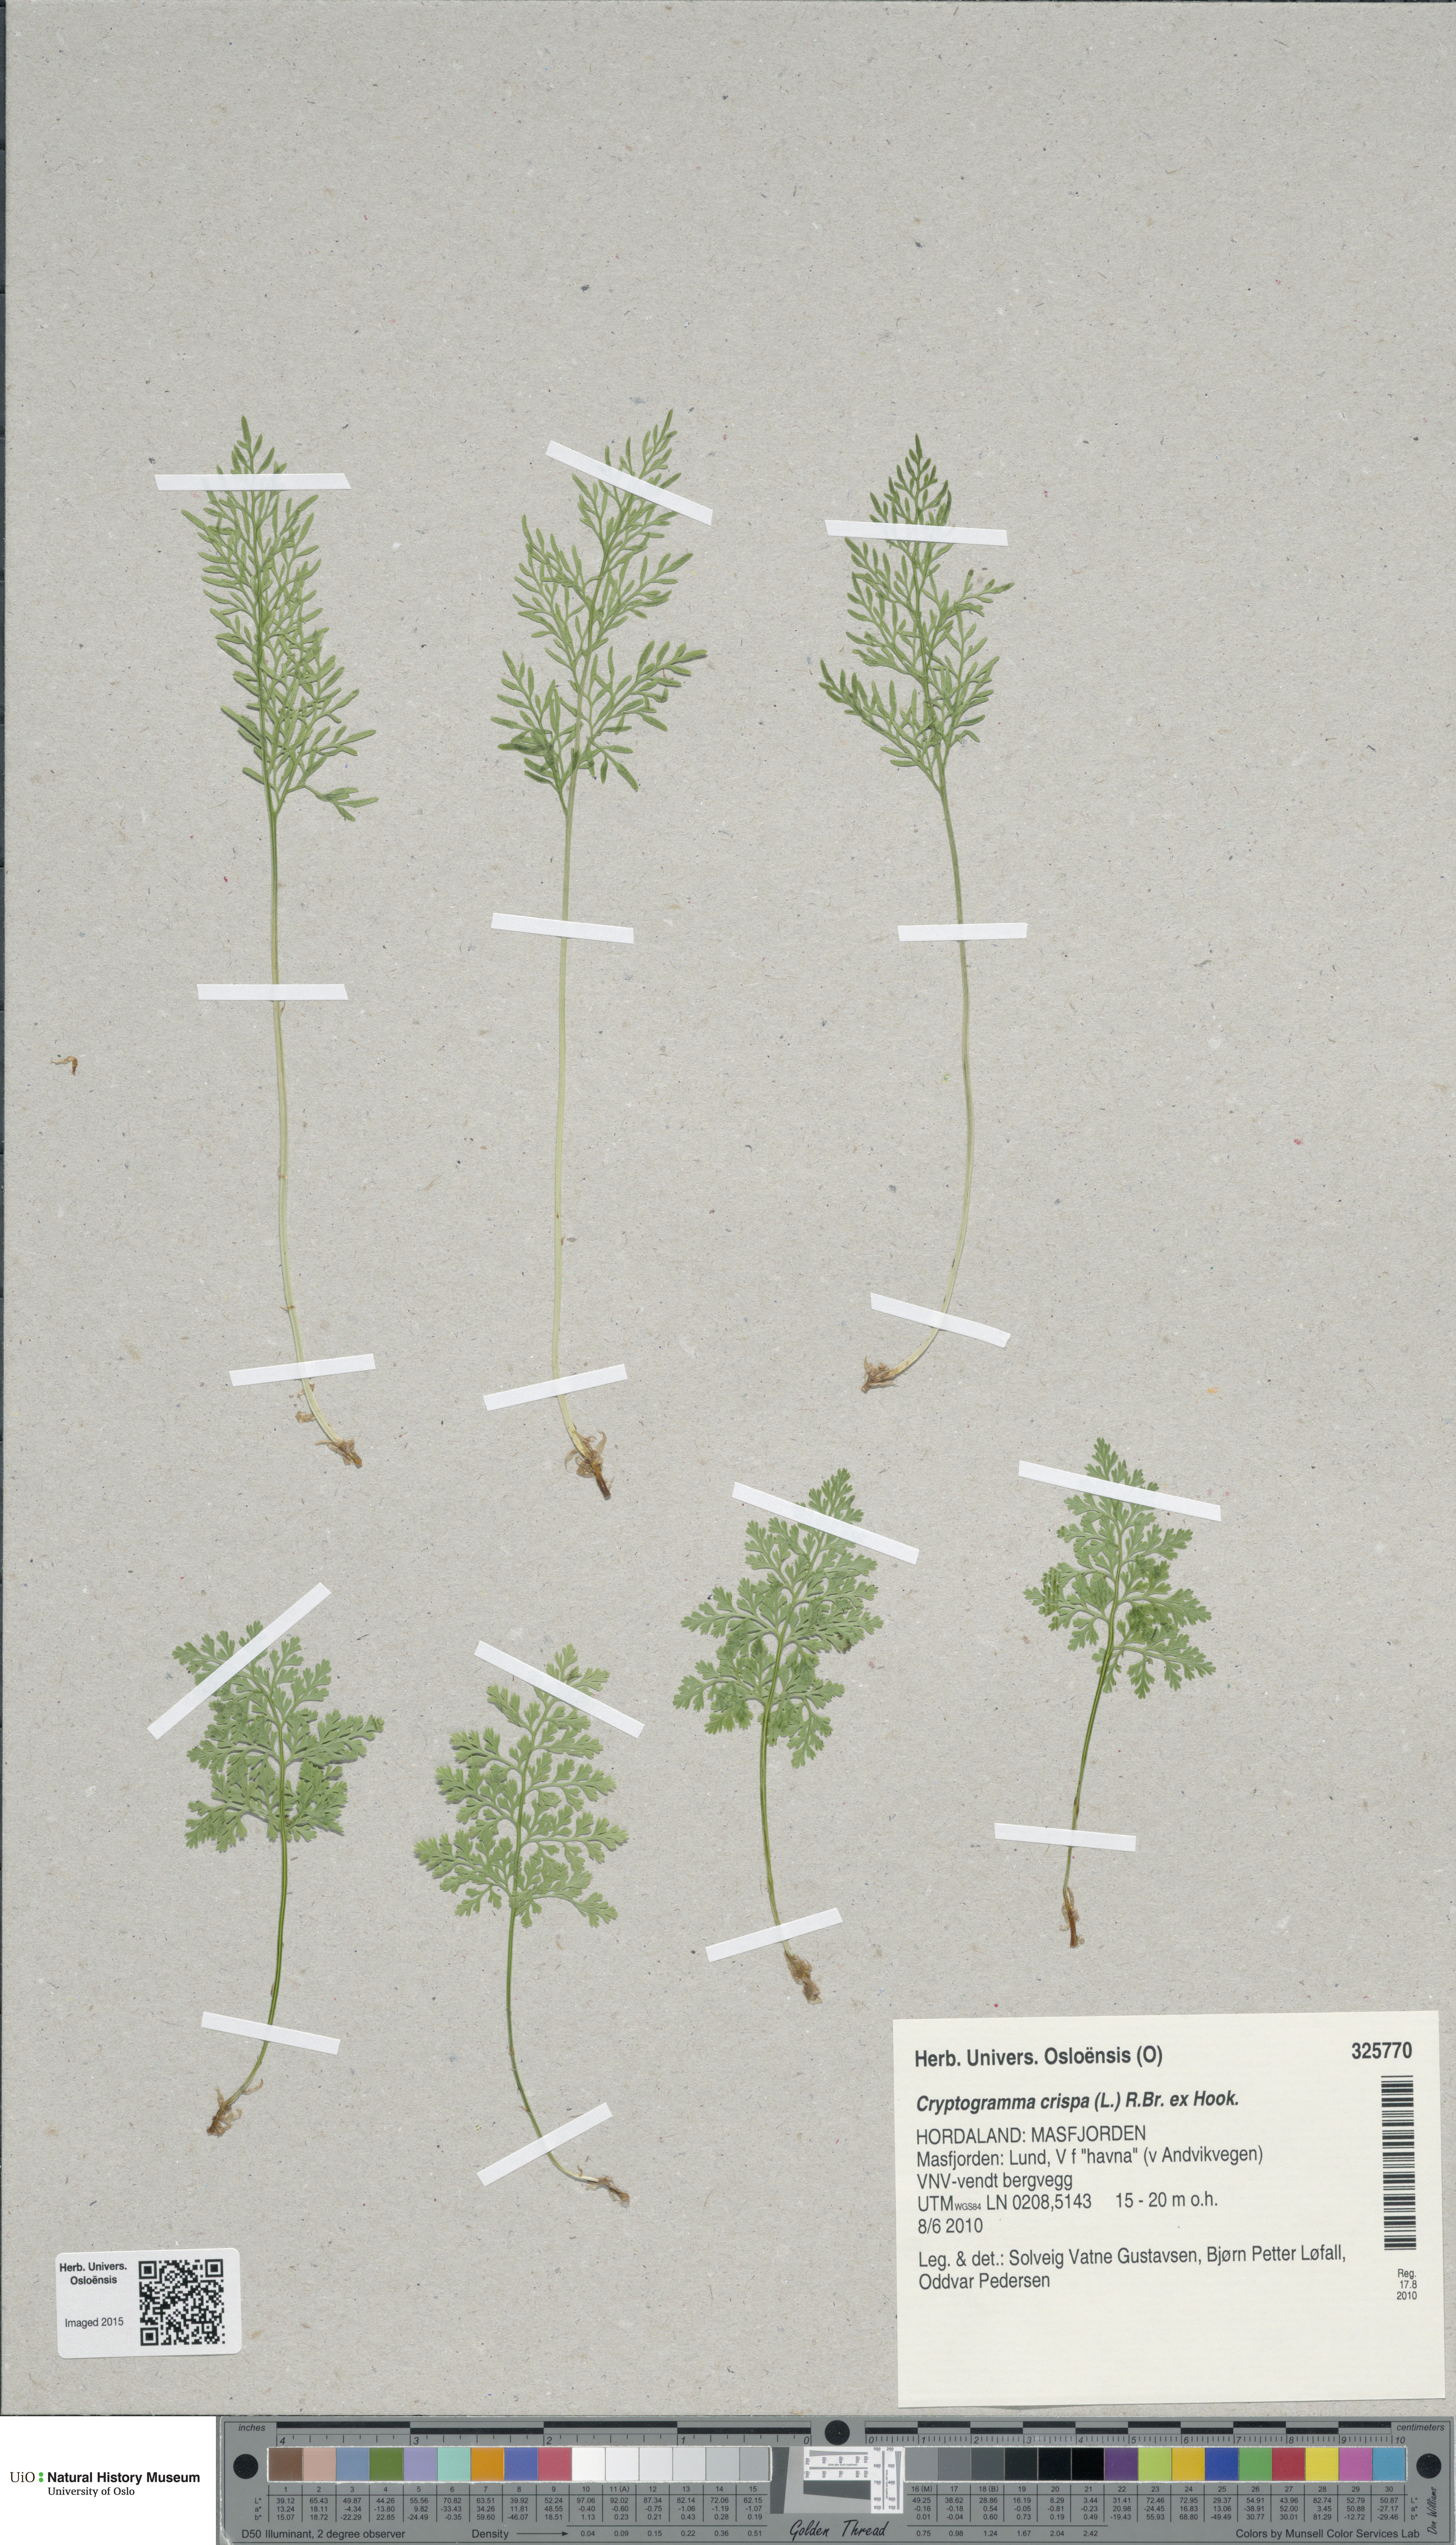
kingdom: Plantae
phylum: Tracheophyta
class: Polypodiopsida
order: Polypodiales
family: Pteridaceae
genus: Cryptogramma
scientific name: Cryptogramma crispa
